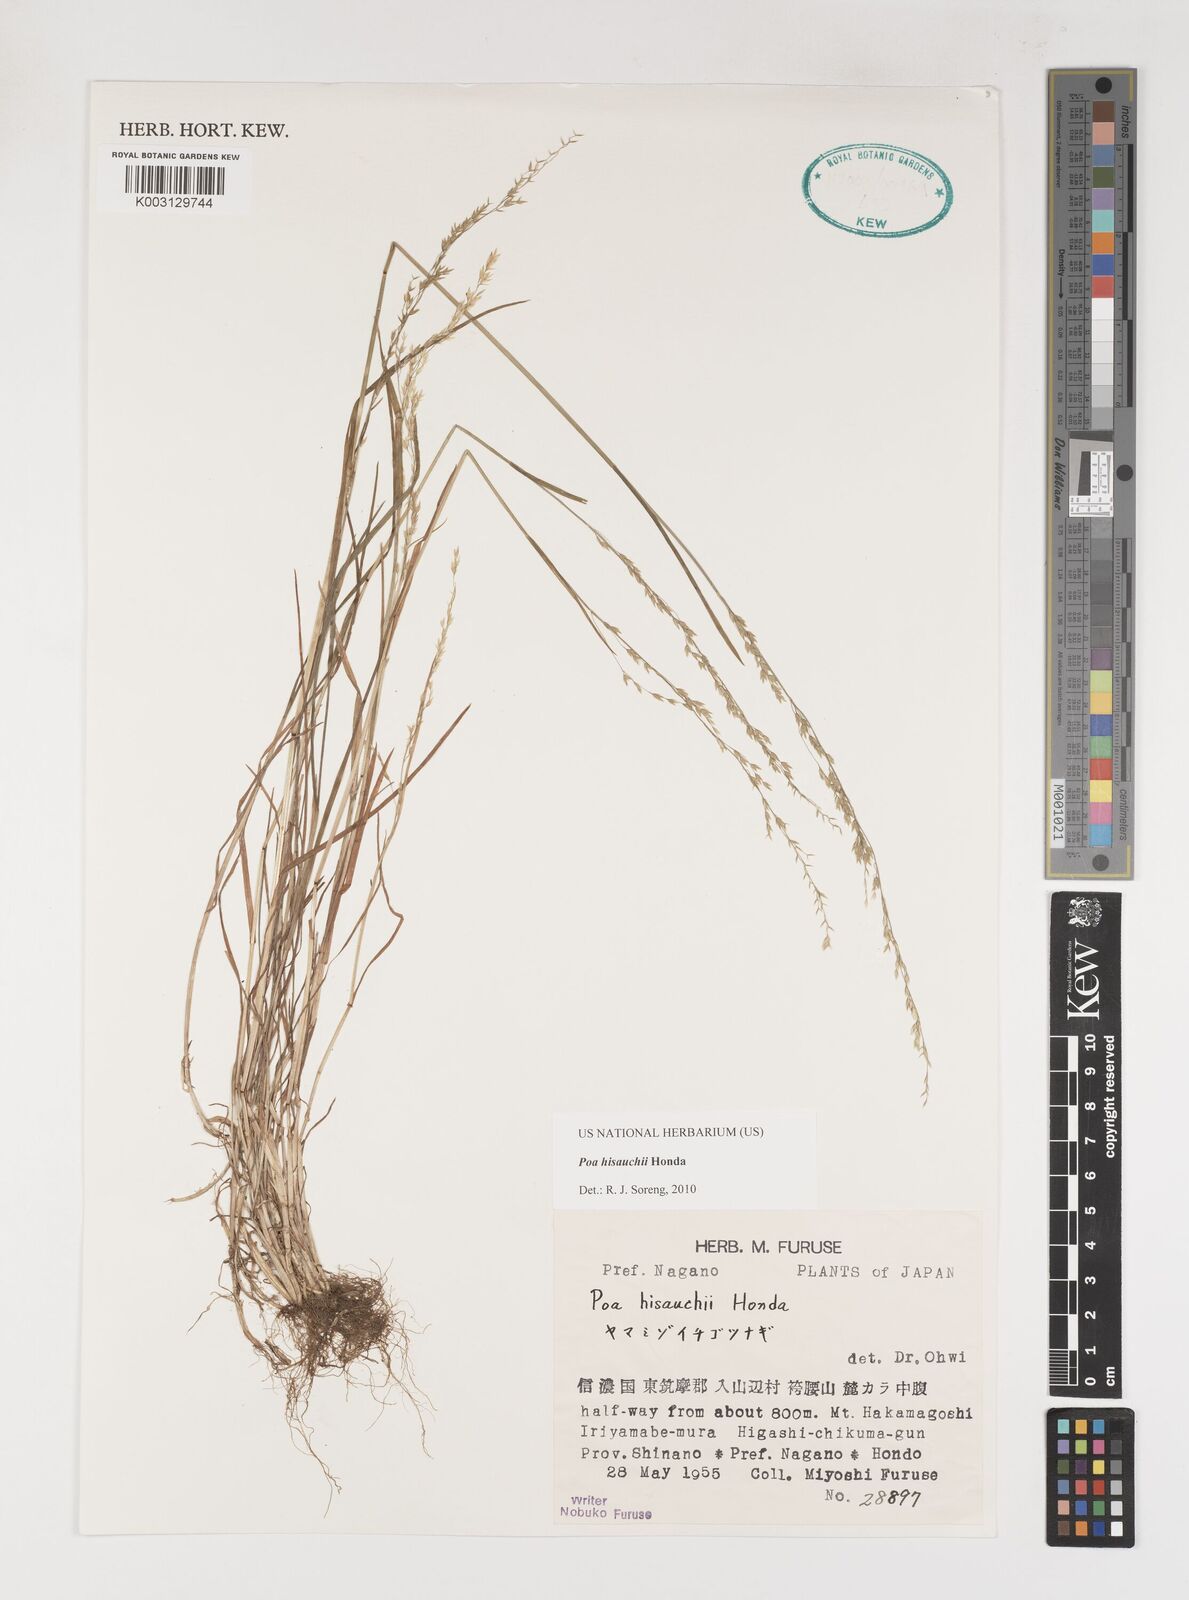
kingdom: Plantae
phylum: Tracheophyta
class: Liliopsida
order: Poales
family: Poaceae
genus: Poa
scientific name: Poa hisauchii
